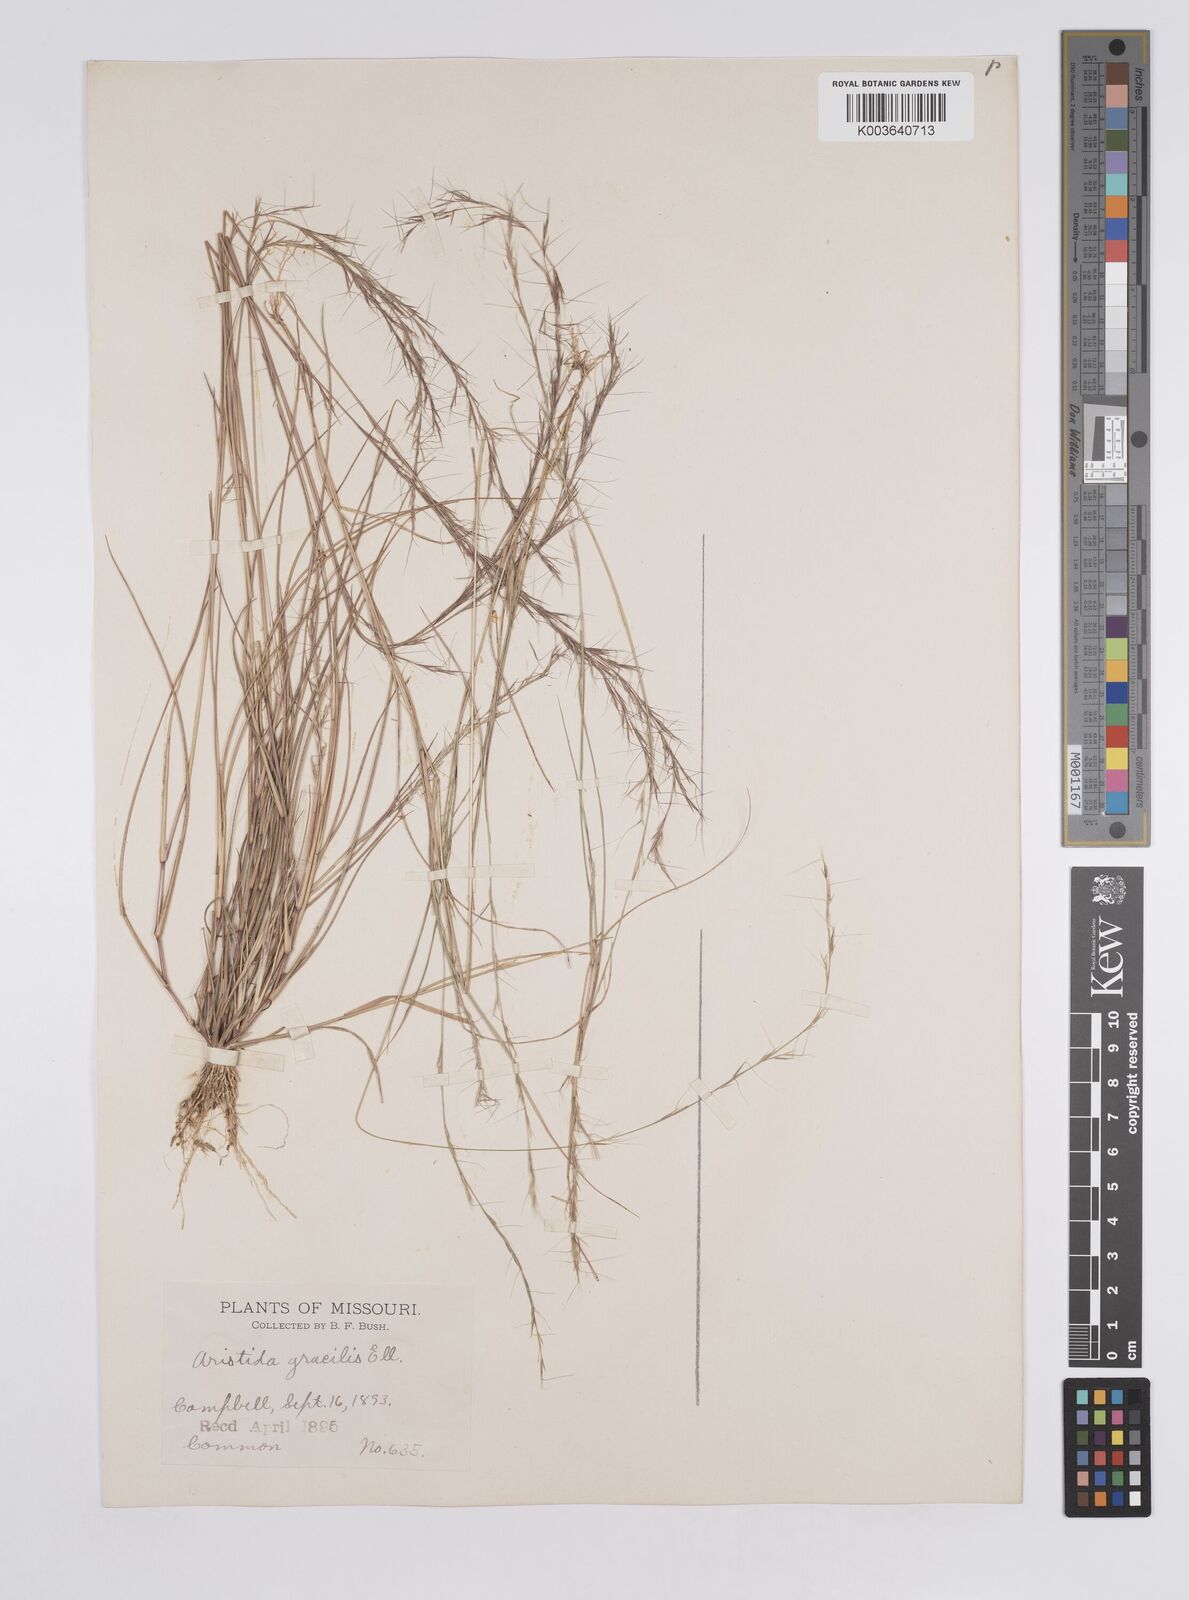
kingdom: Plantae
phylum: Tracheophyta
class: Liliopsida
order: Poales
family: Poaceae
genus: Aristida
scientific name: Aristida longespica
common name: Long-spiked triple-awned grass
